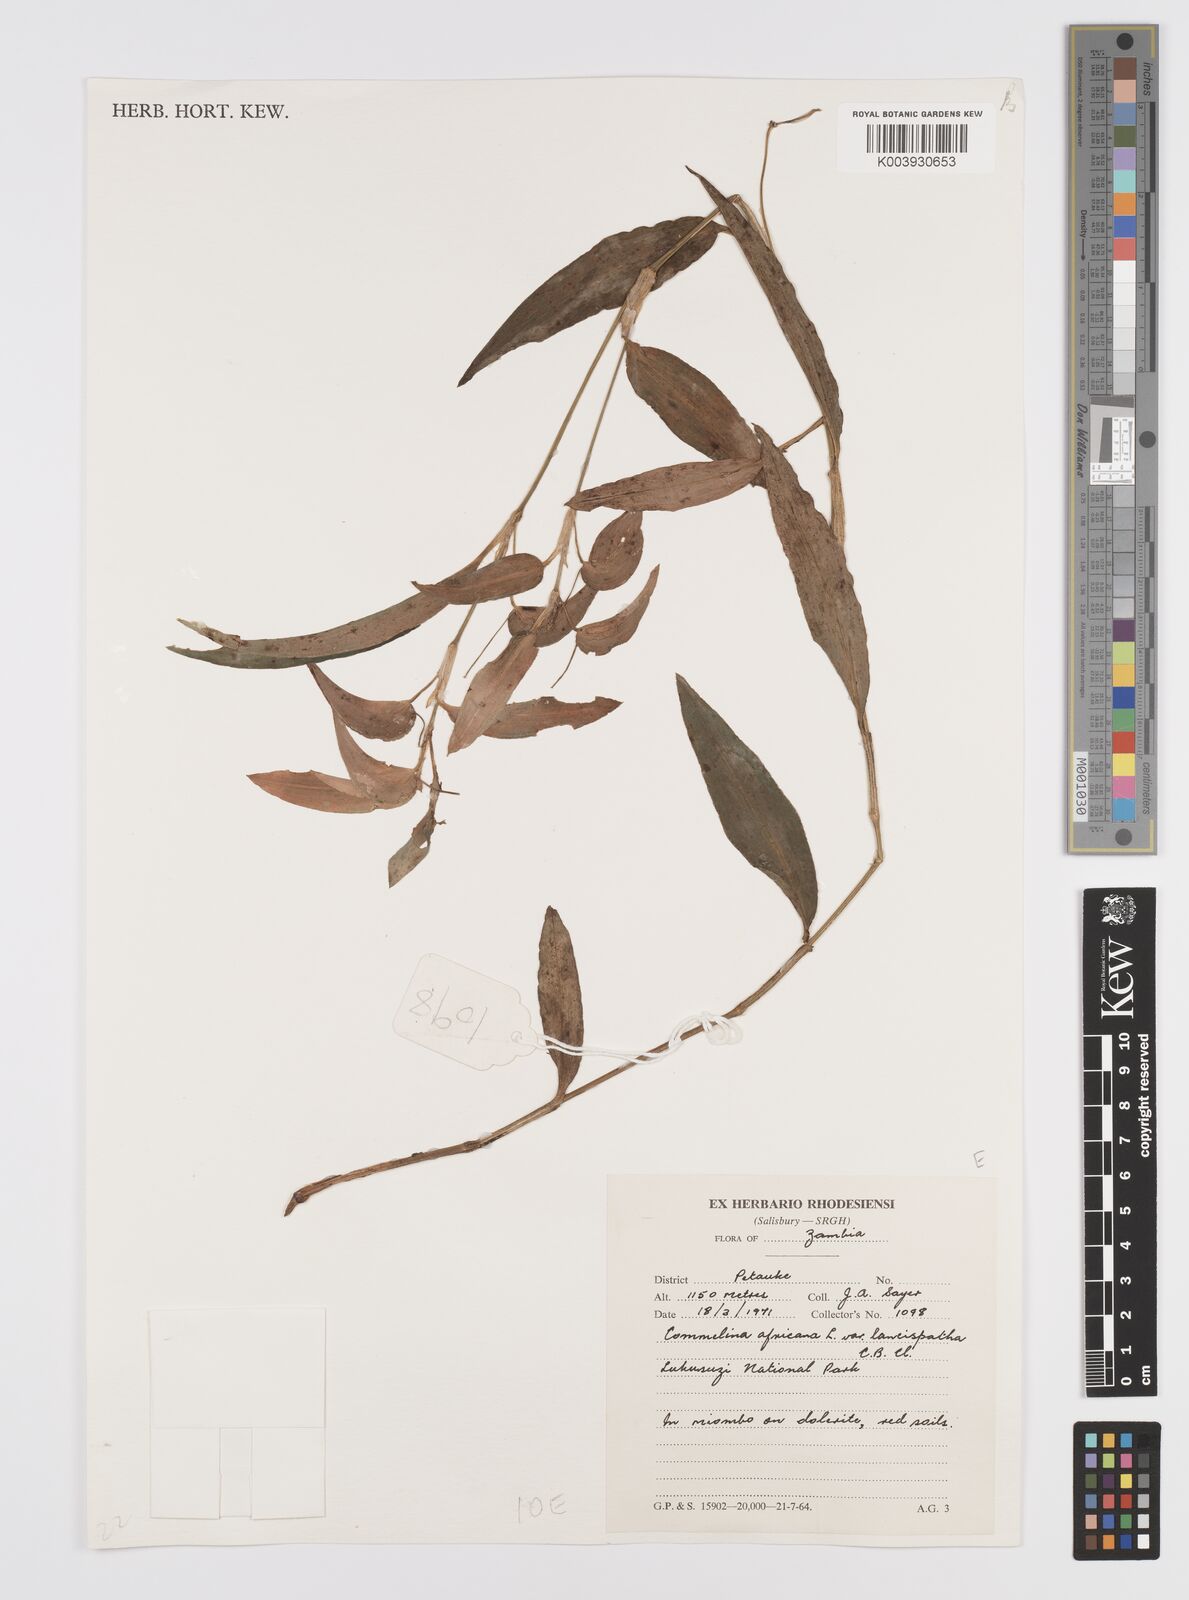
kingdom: Plantae
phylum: Tracheophyta
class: Liliopsida
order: Commelinales
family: Commelinaceae
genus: Commelina
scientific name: Commelina africana
